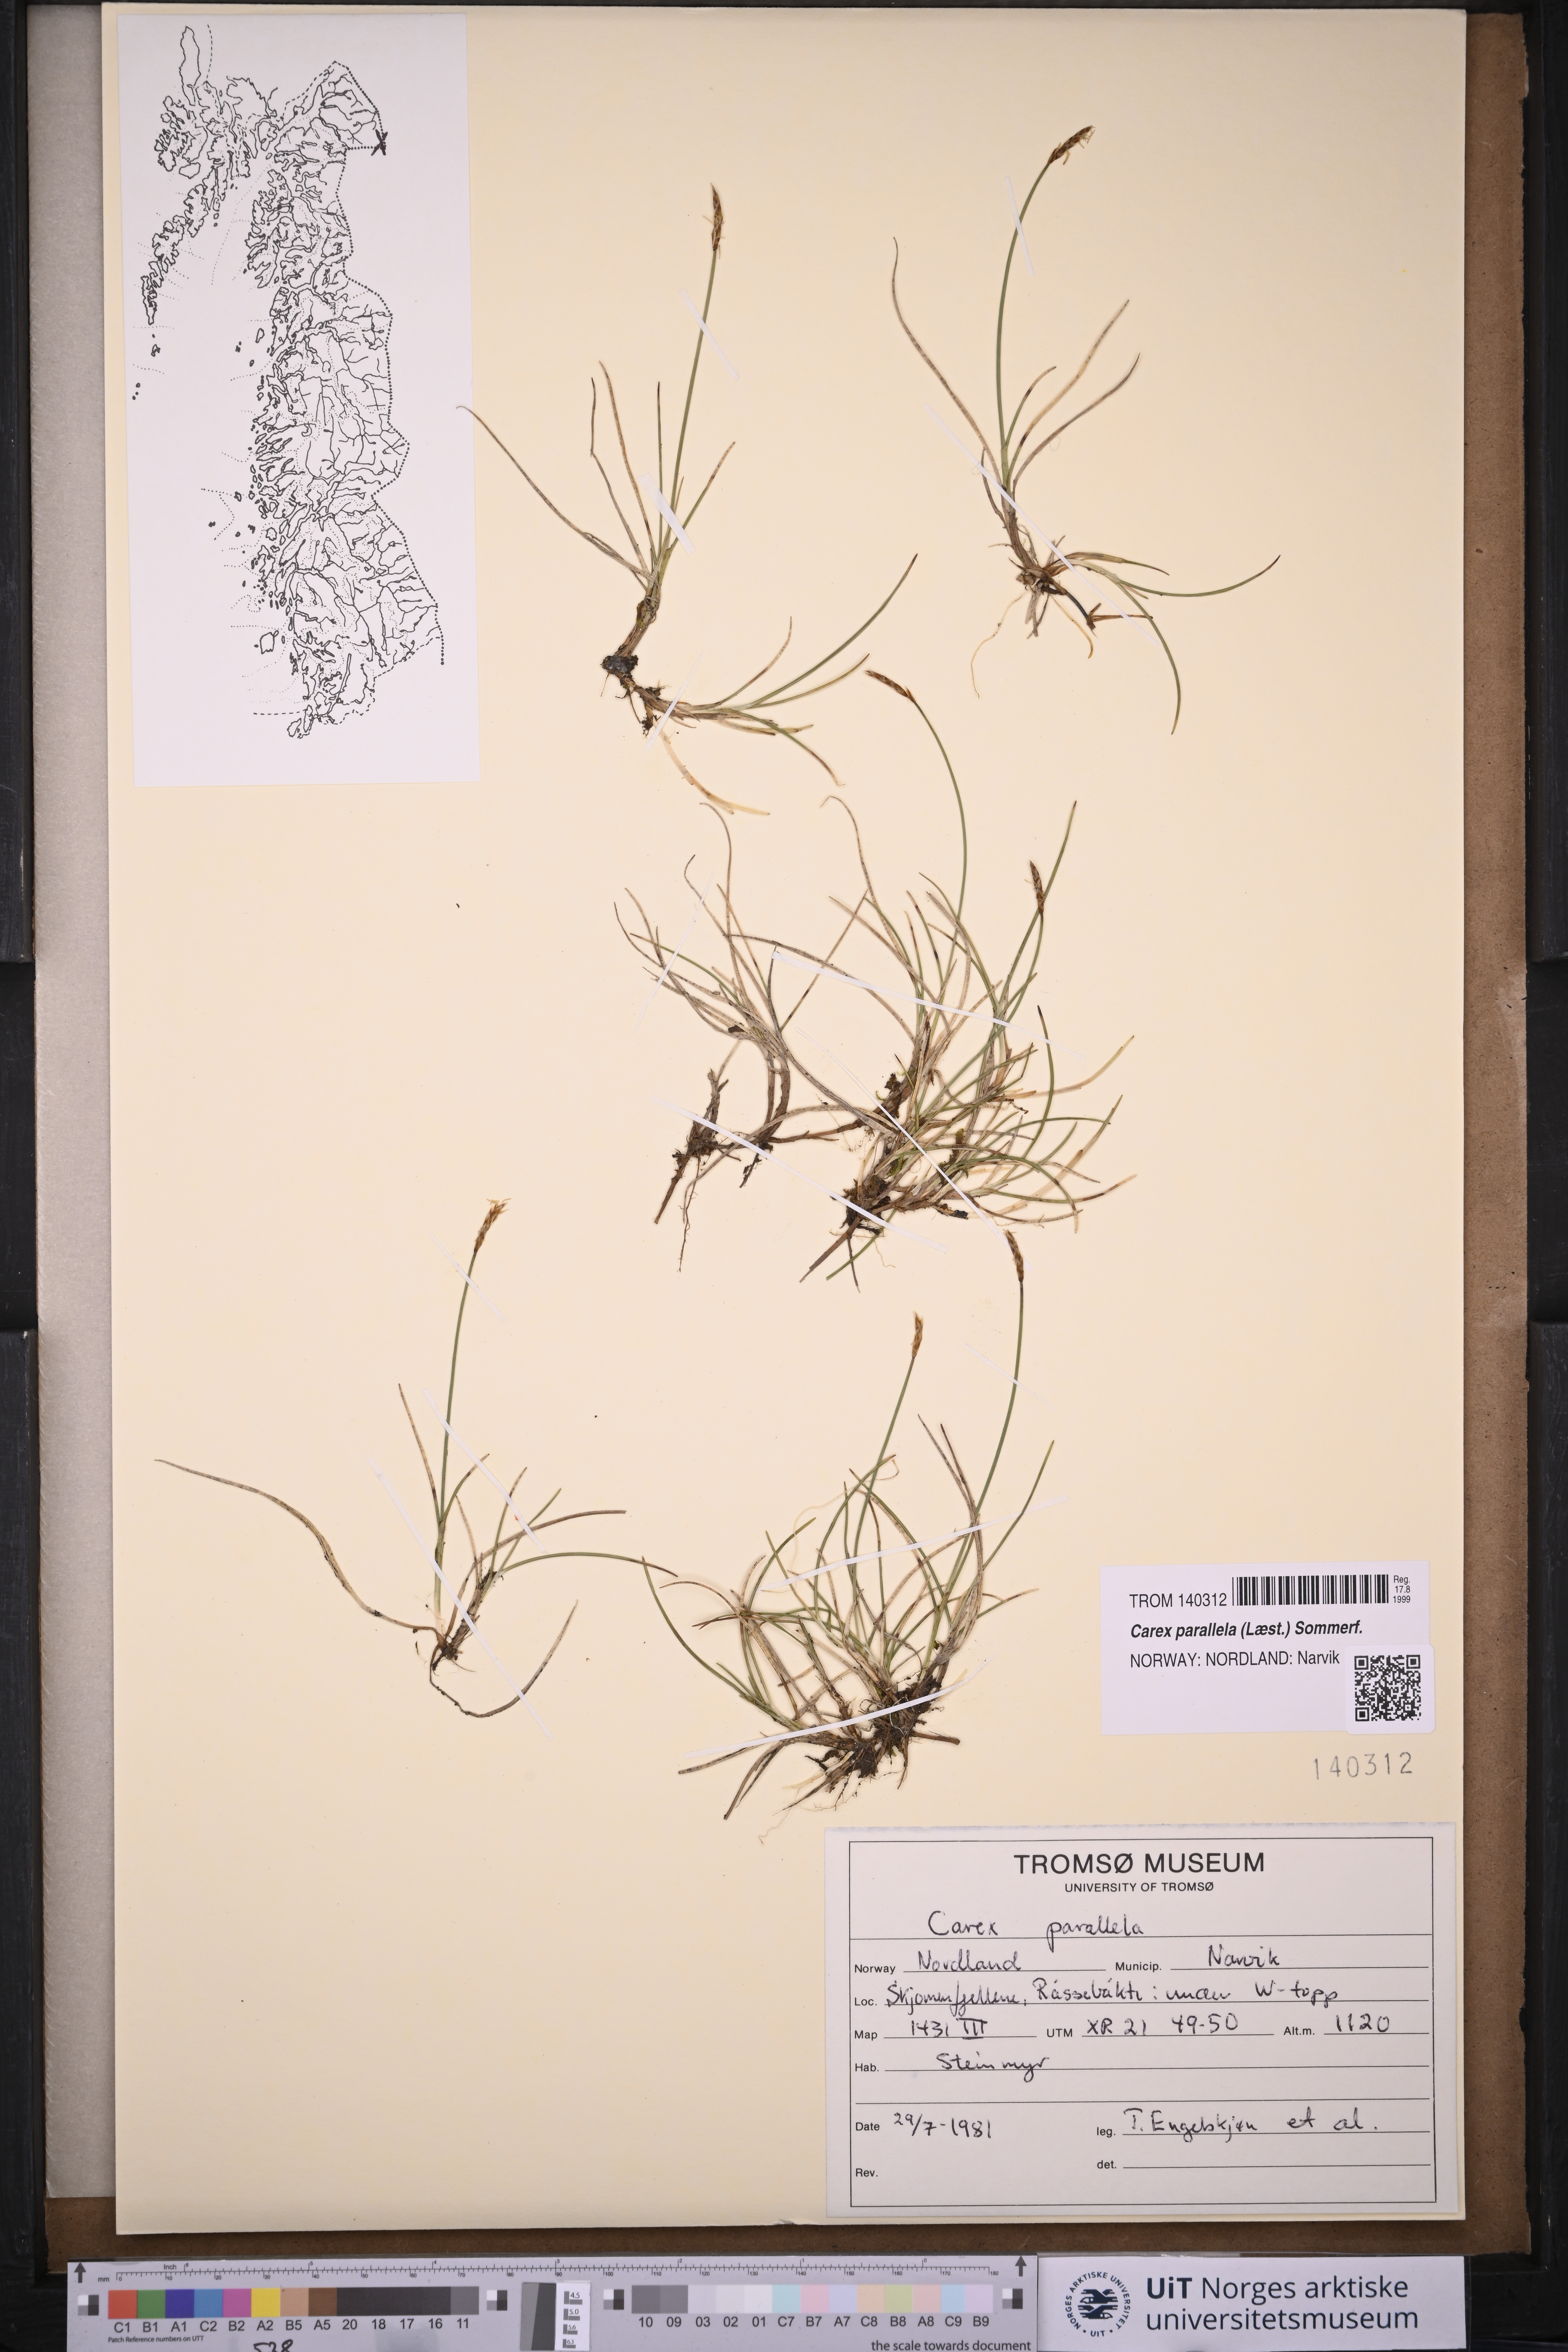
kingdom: Plantae
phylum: Tracheophyta
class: Liliopsida
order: Poales
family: Cyperaceae
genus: Carex
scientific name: Carex parallela
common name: Parallel sedge
